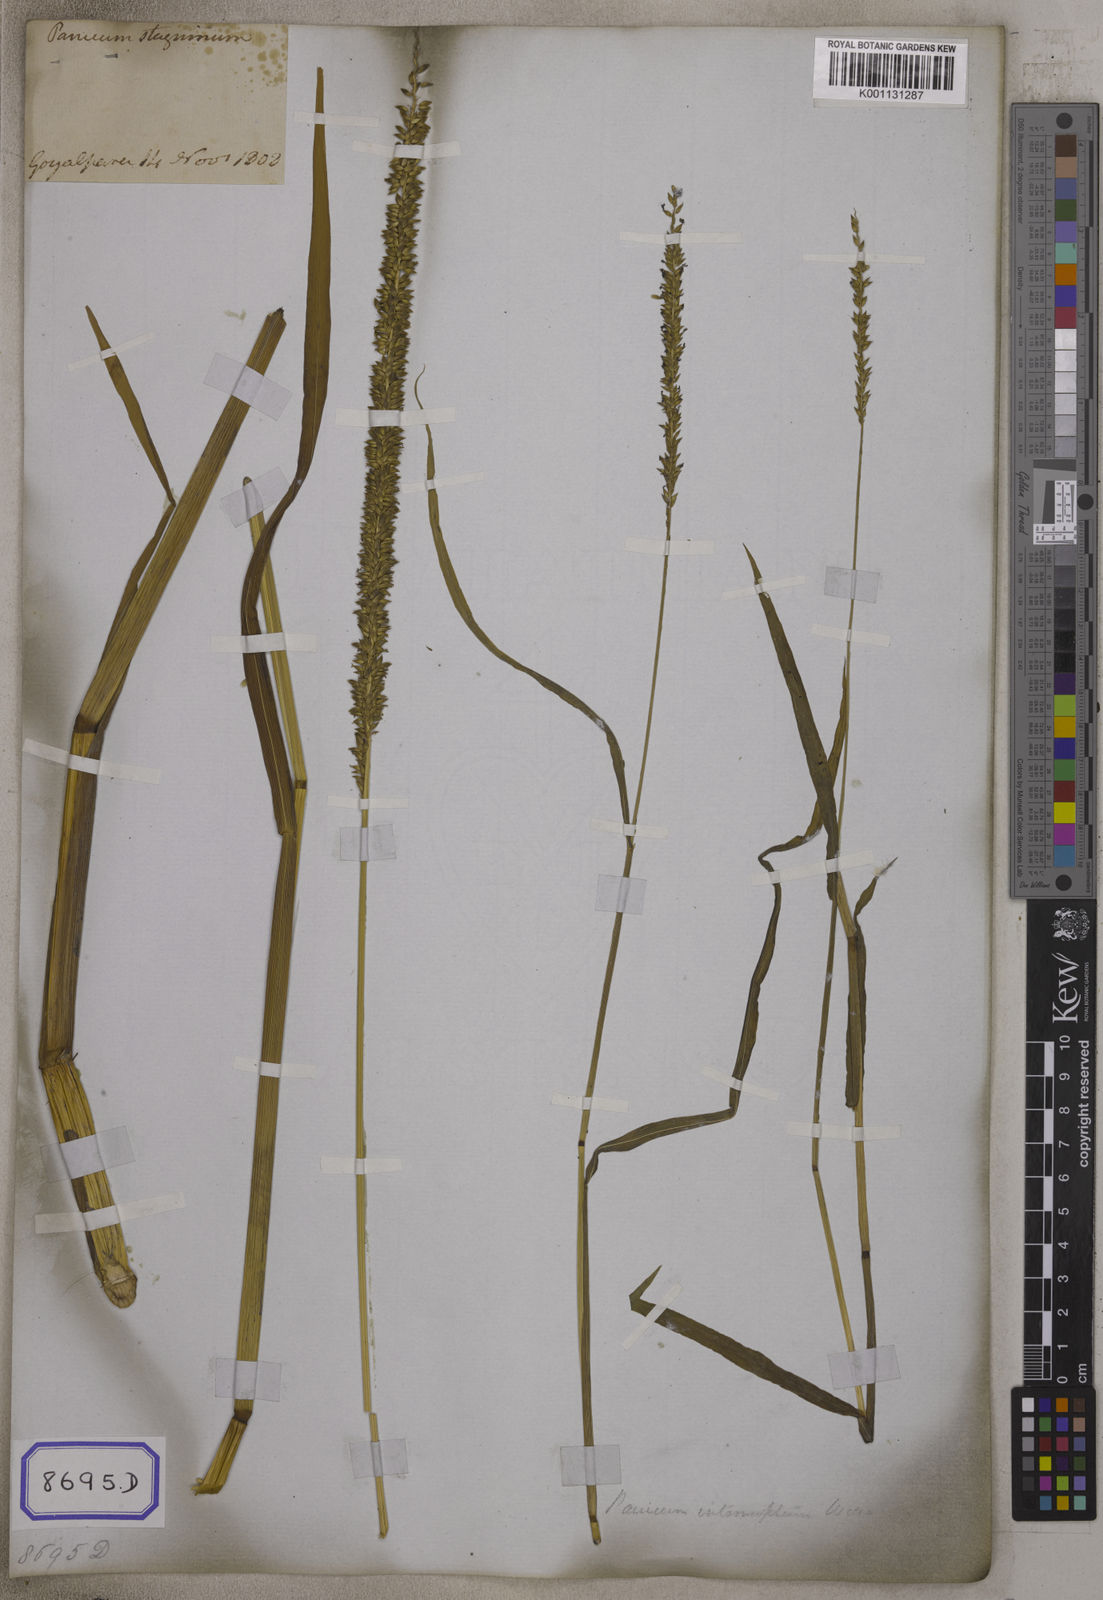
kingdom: Plantae
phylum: Tracheophyta
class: Liliopsida
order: Poales
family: Poaceae
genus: Sacciolepis
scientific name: Sacciolepis interrupta
